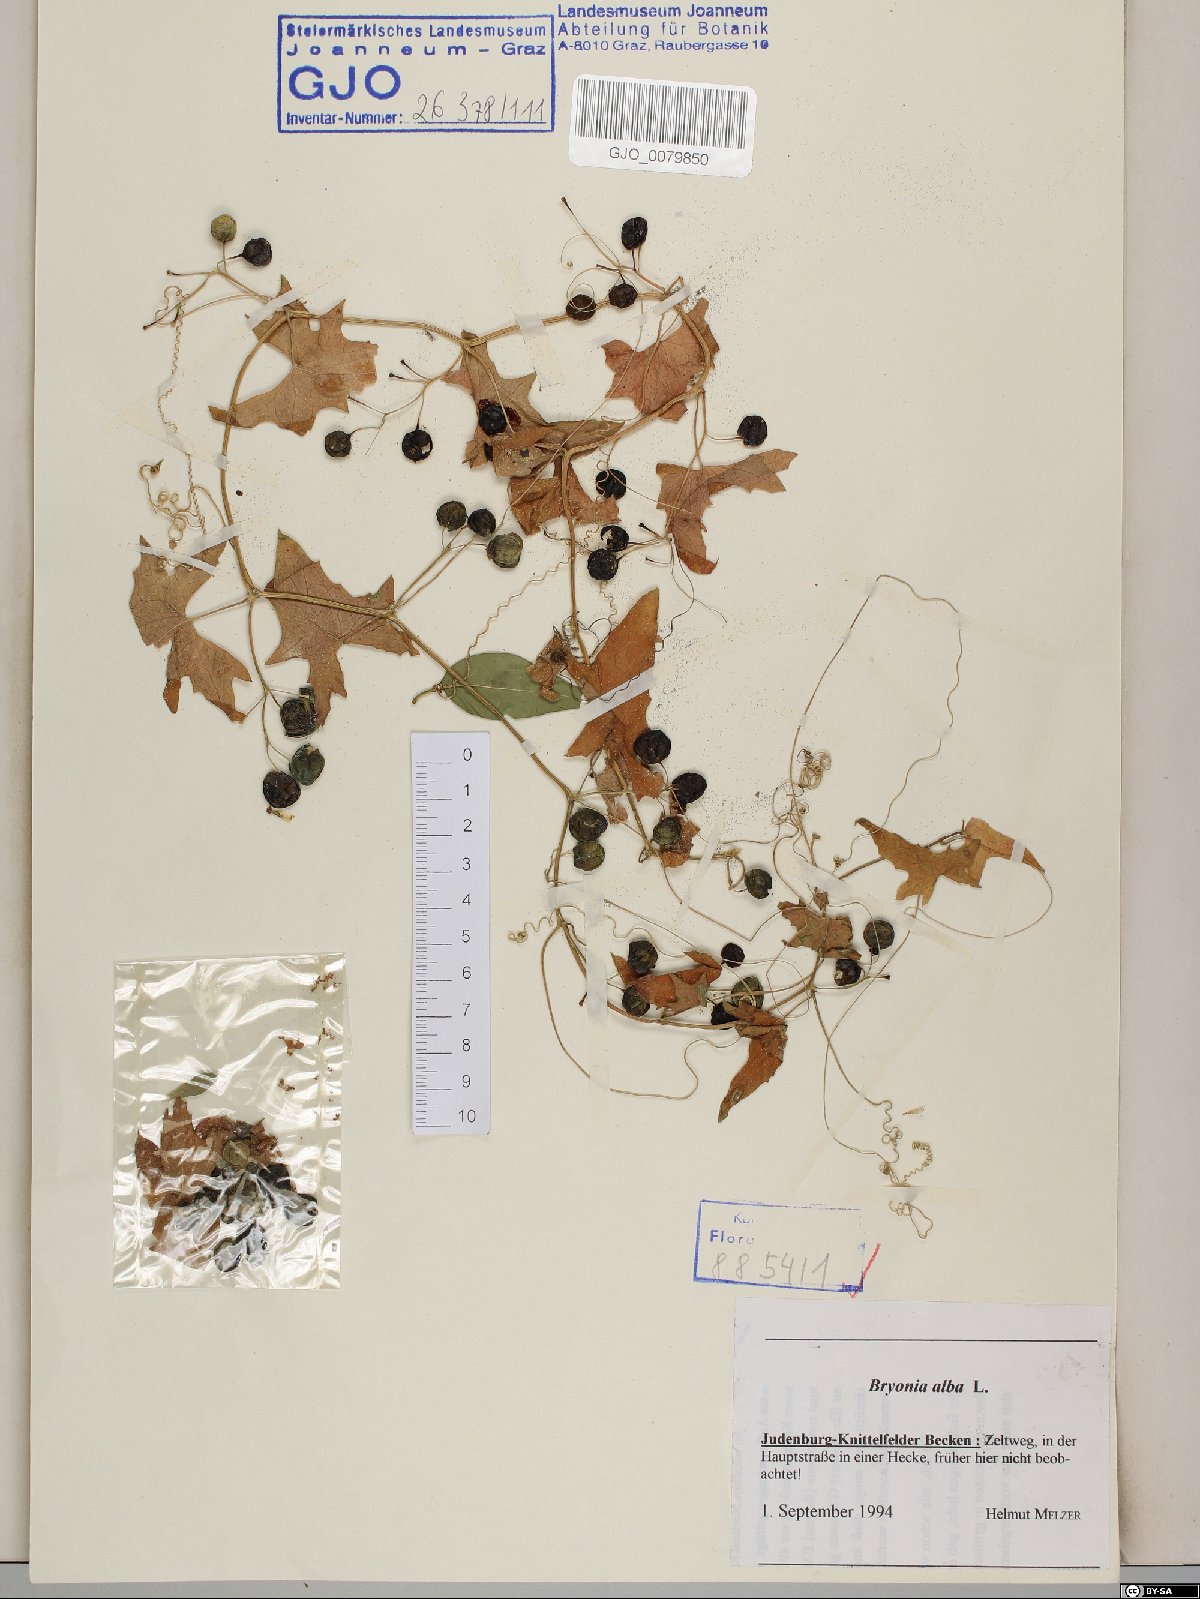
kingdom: Plantae
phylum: Tracheophyta
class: Magnoliopsida
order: Cucurbitales
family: Cucurbitaceae
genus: Bryonia
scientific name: Bryonia alba
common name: White bryony
